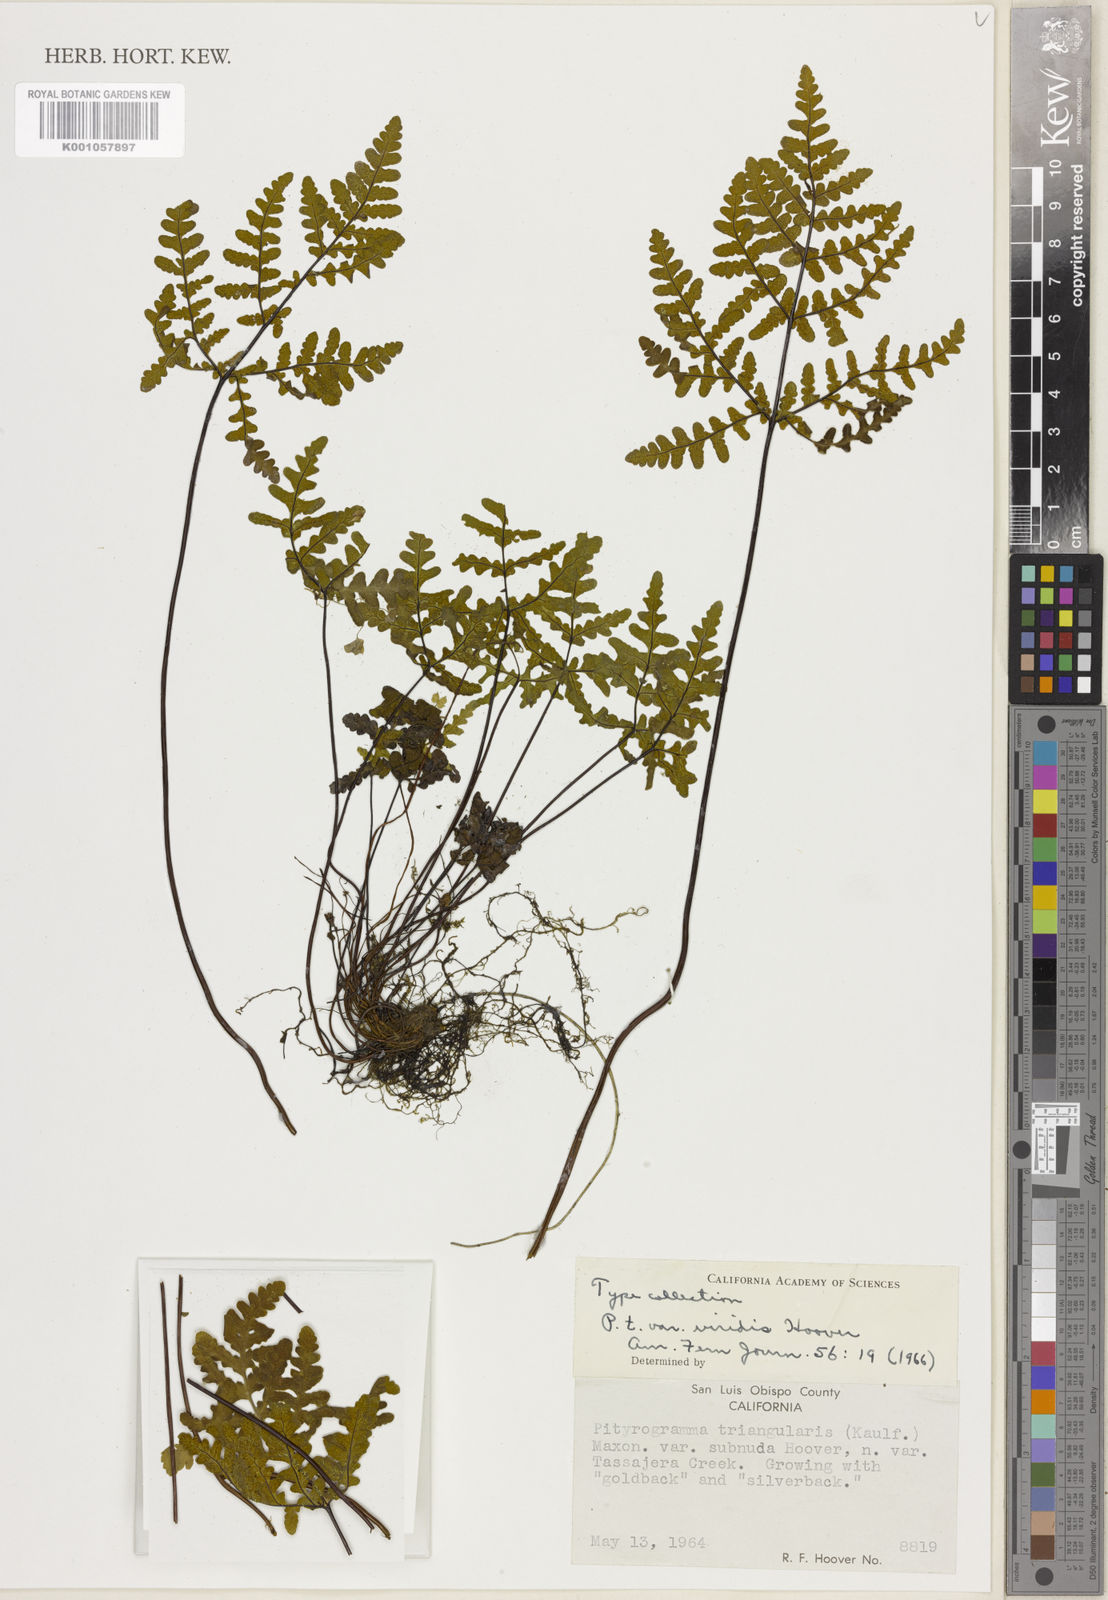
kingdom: Plantae
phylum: Tracheophyta
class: Polypodiopsida
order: Polypodiales
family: Pteridaceae
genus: Pentagramma
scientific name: Pentagramma triangularis
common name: Gold fern
